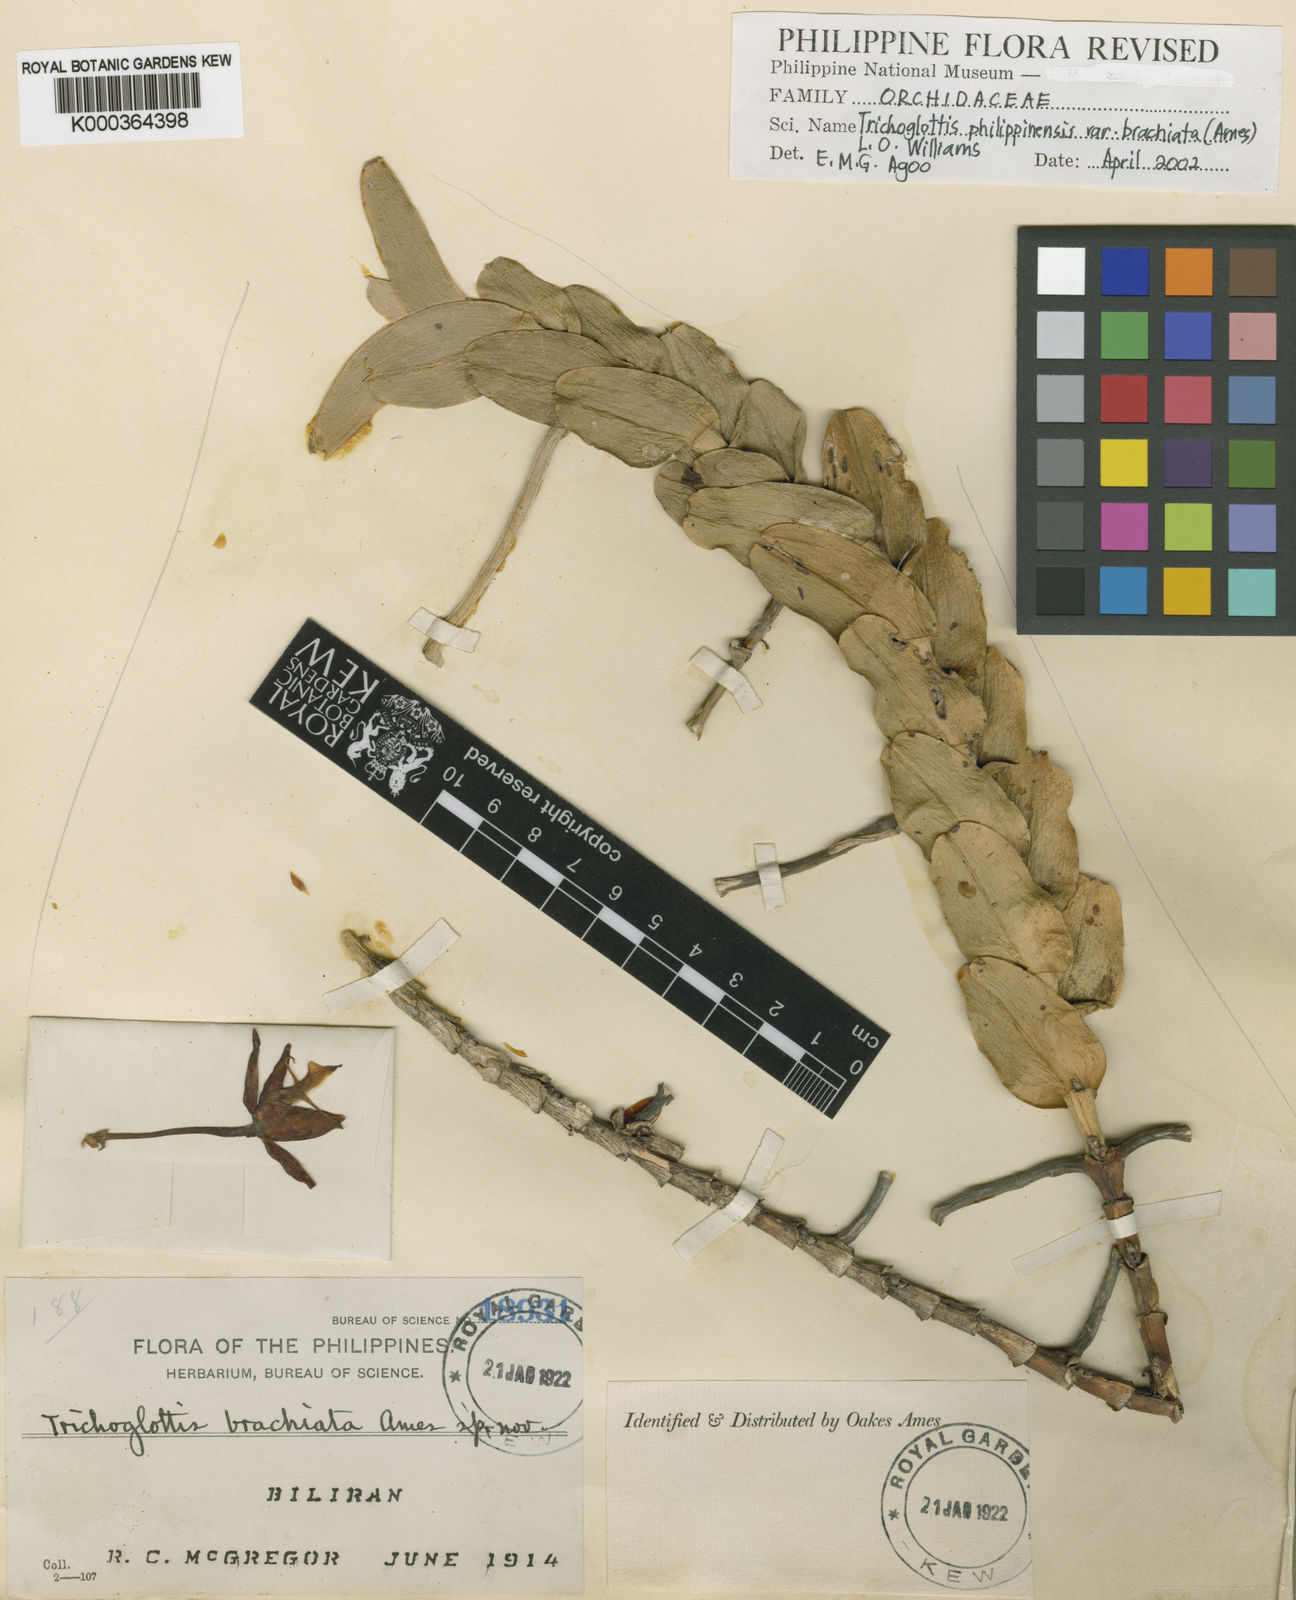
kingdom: Plantae
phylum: Tracheophyta
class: Liliopsida
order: Asparagales
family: Orchidaceae
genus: Trichoglottis
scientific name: Trichoglottis atropurpurea
